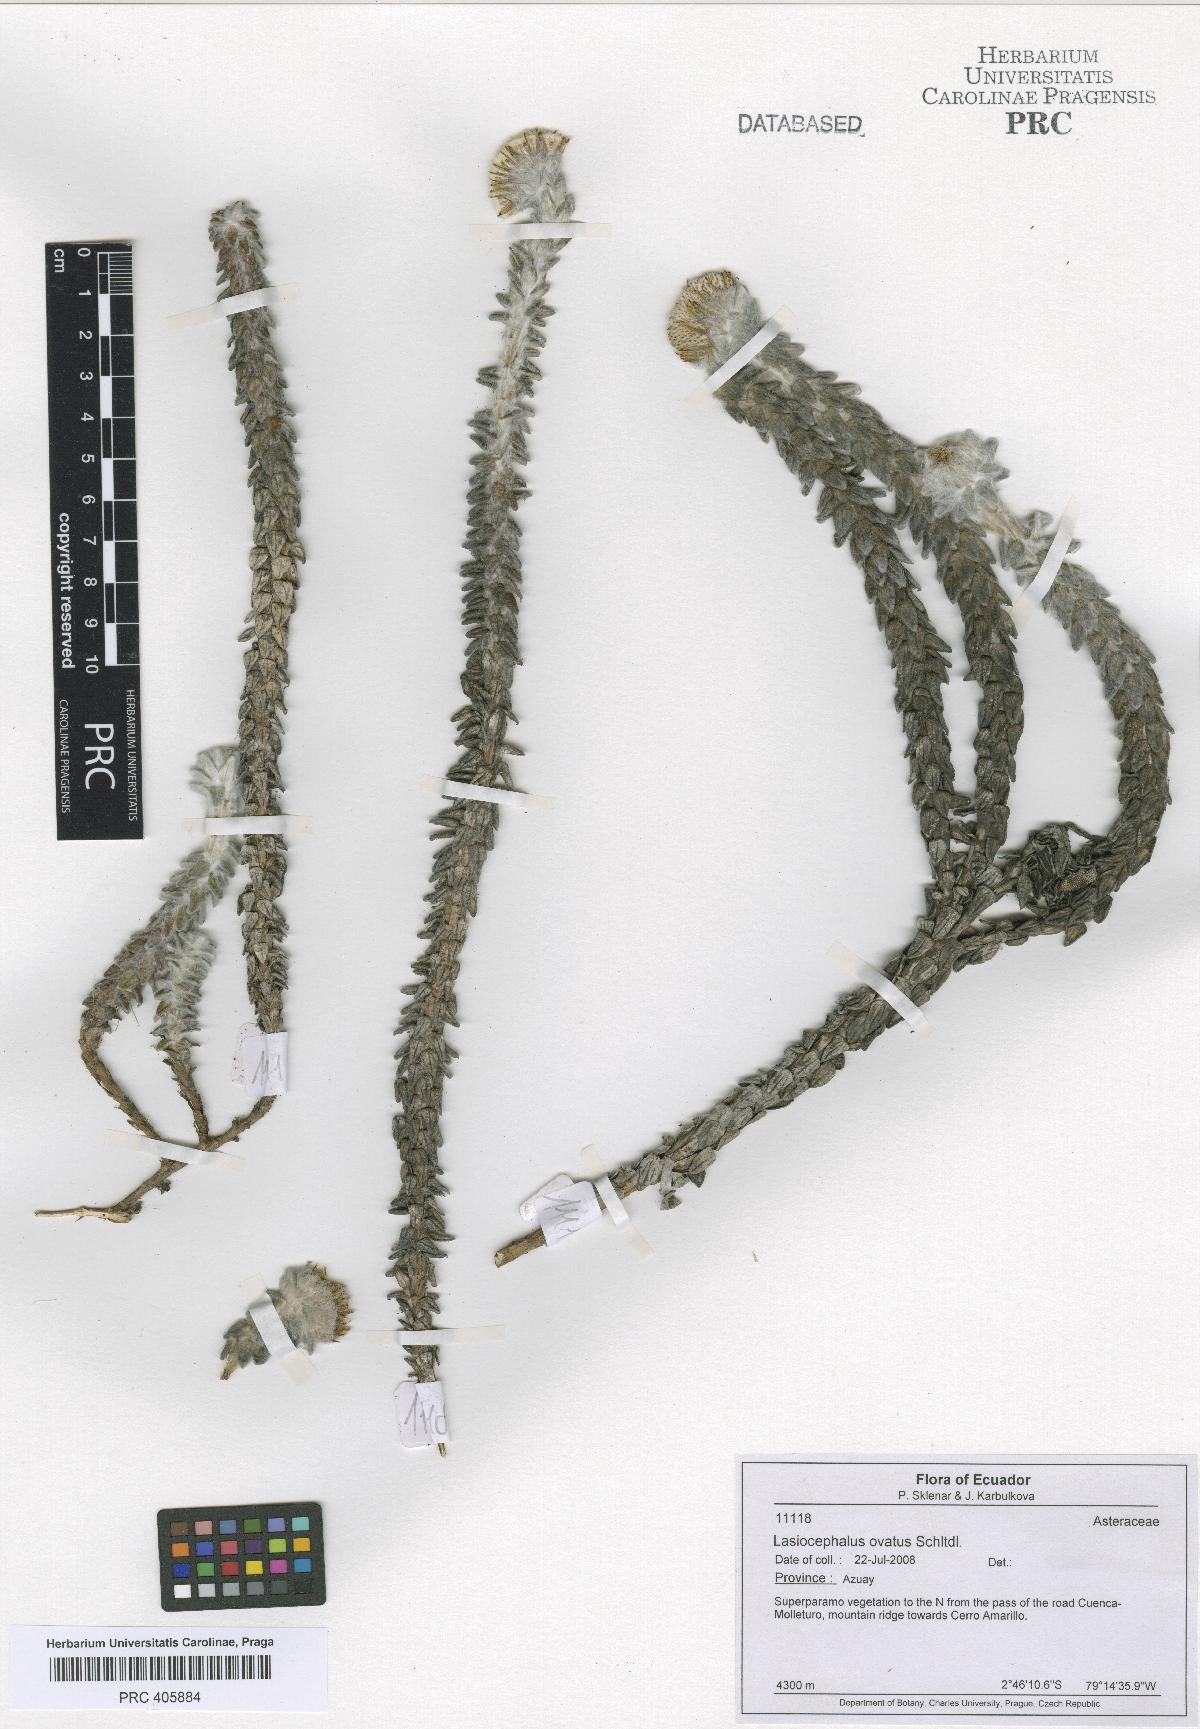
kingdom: Plantae
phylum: Tracheophyta
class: Magnoliopsida
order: Asterales
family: Asteraceae
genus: Lasiocephalus
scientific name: Lasiocephalus ovatus
